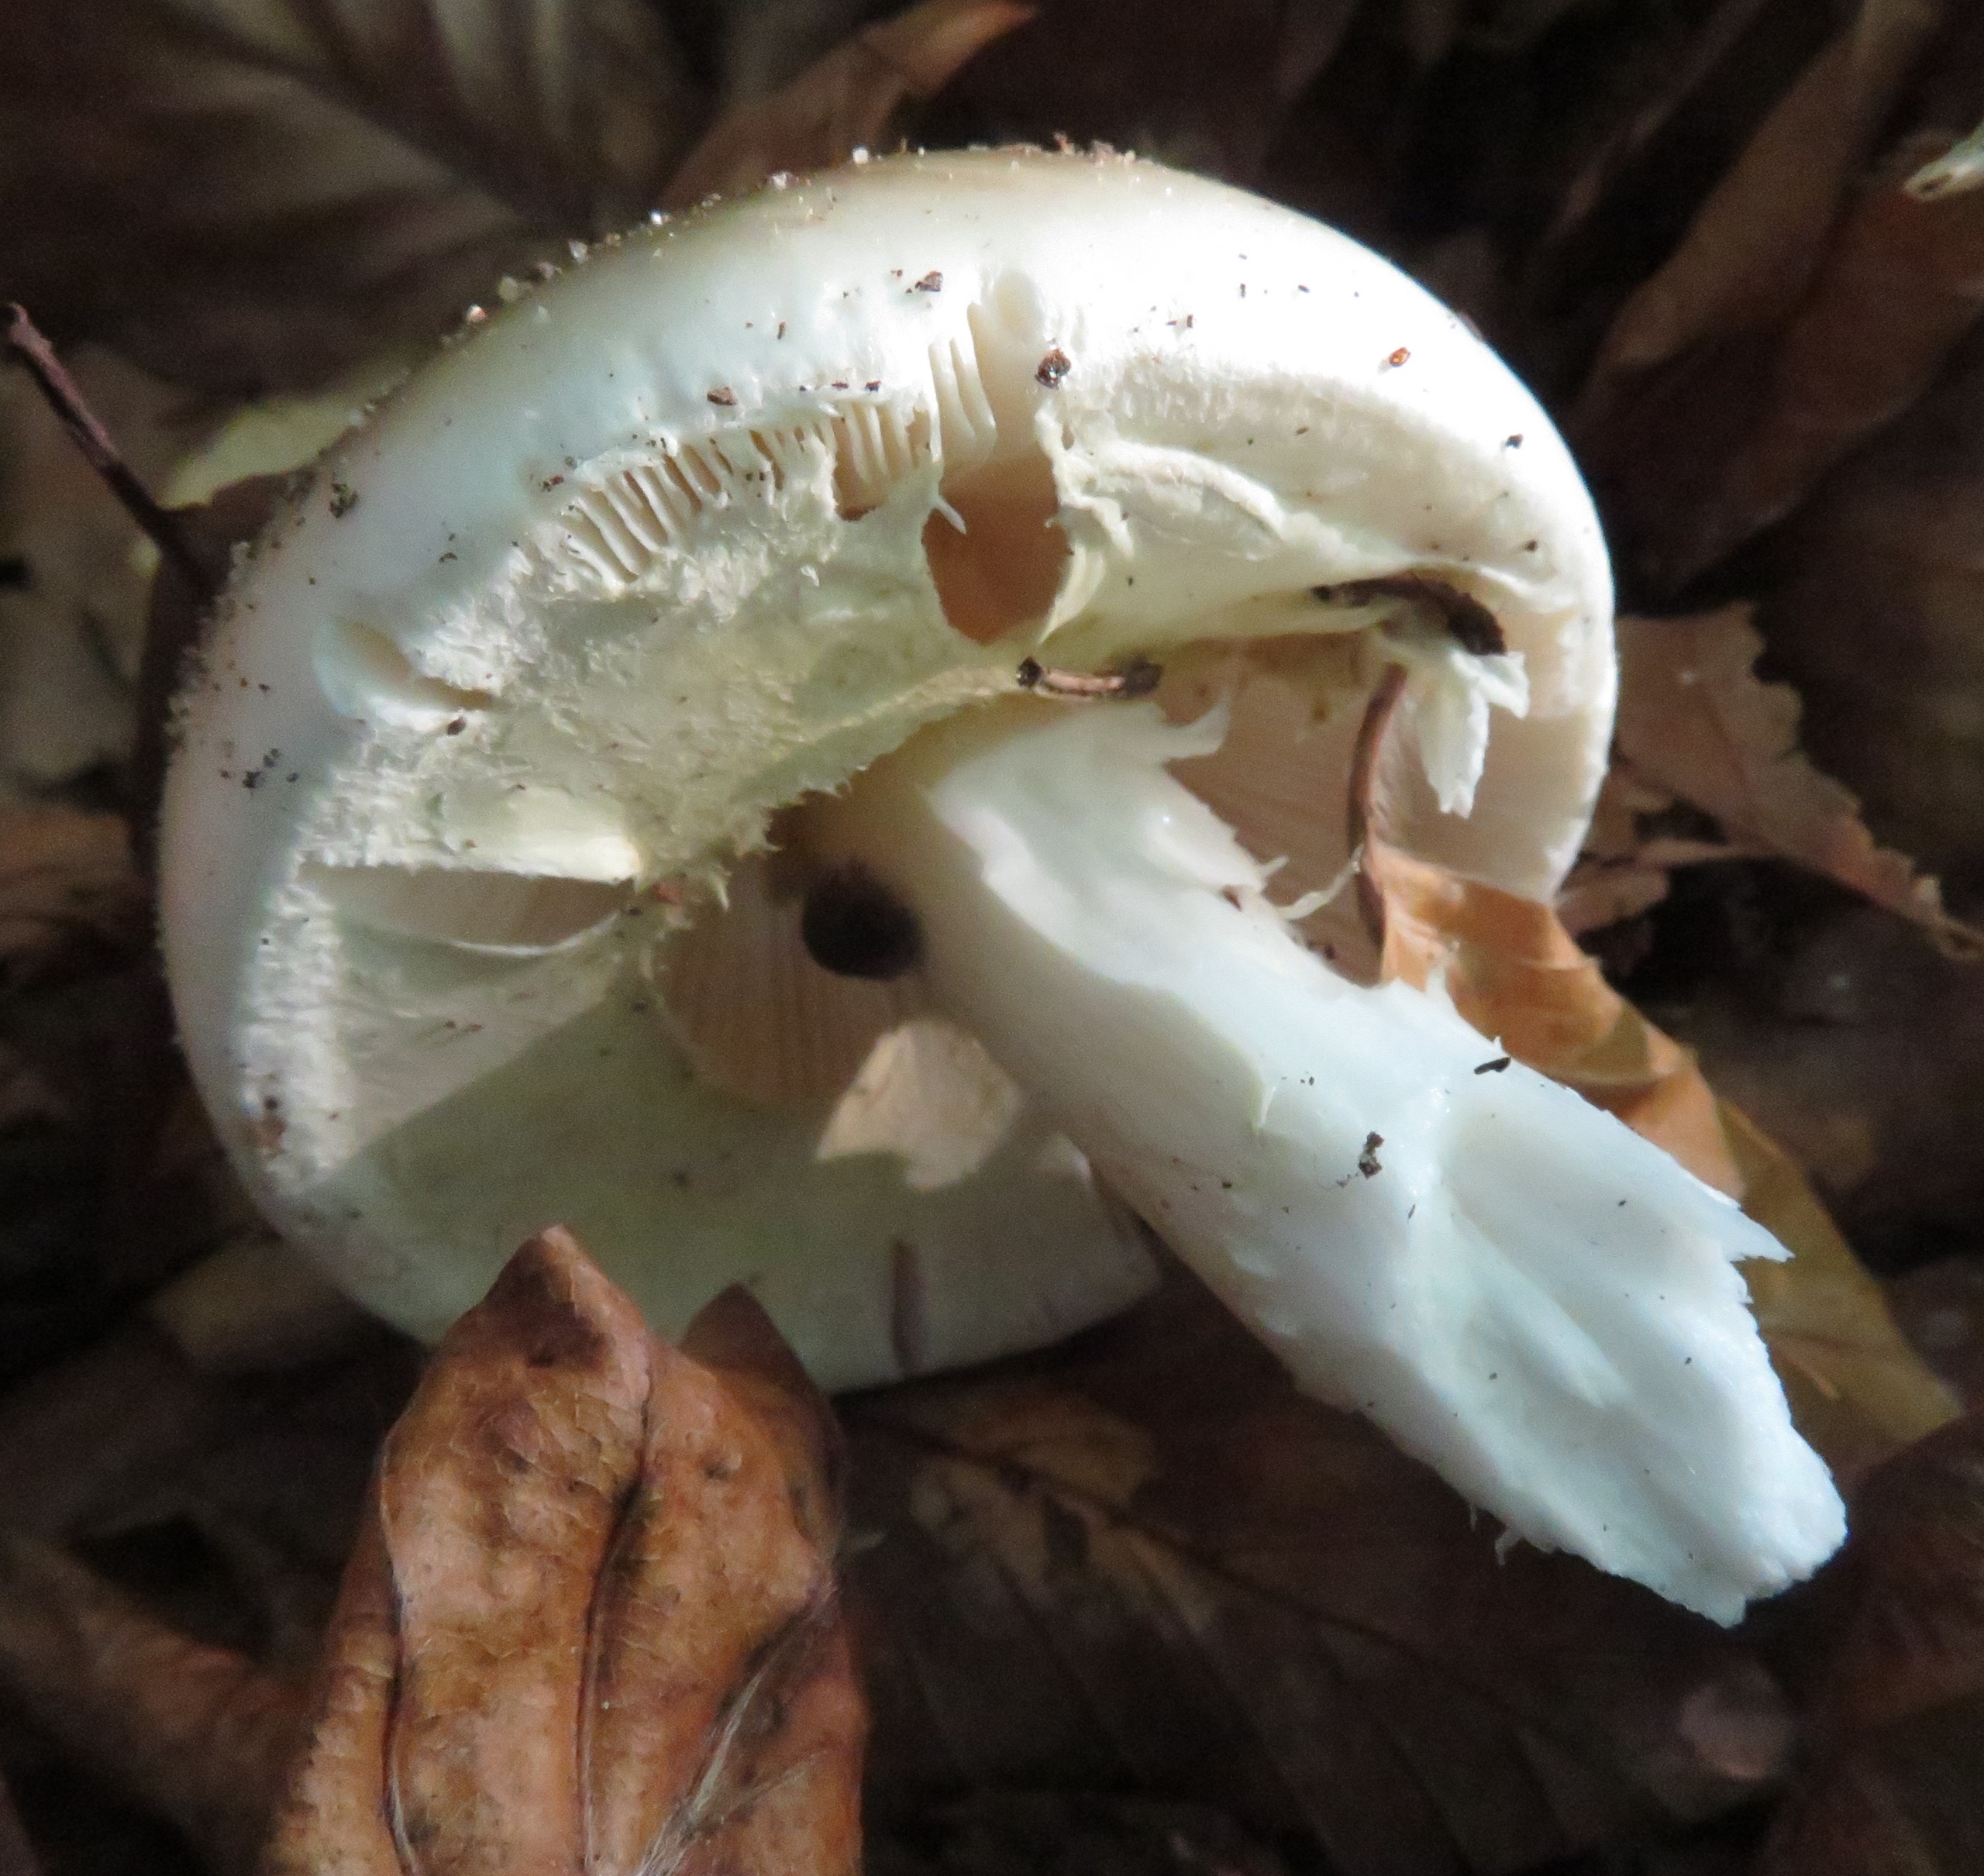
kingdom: Fungi
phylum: Basidiomycota
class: Agaricomycetes
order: Agaricales
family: Amanitaceae
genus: Amanita
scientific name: Amanita phalloides
